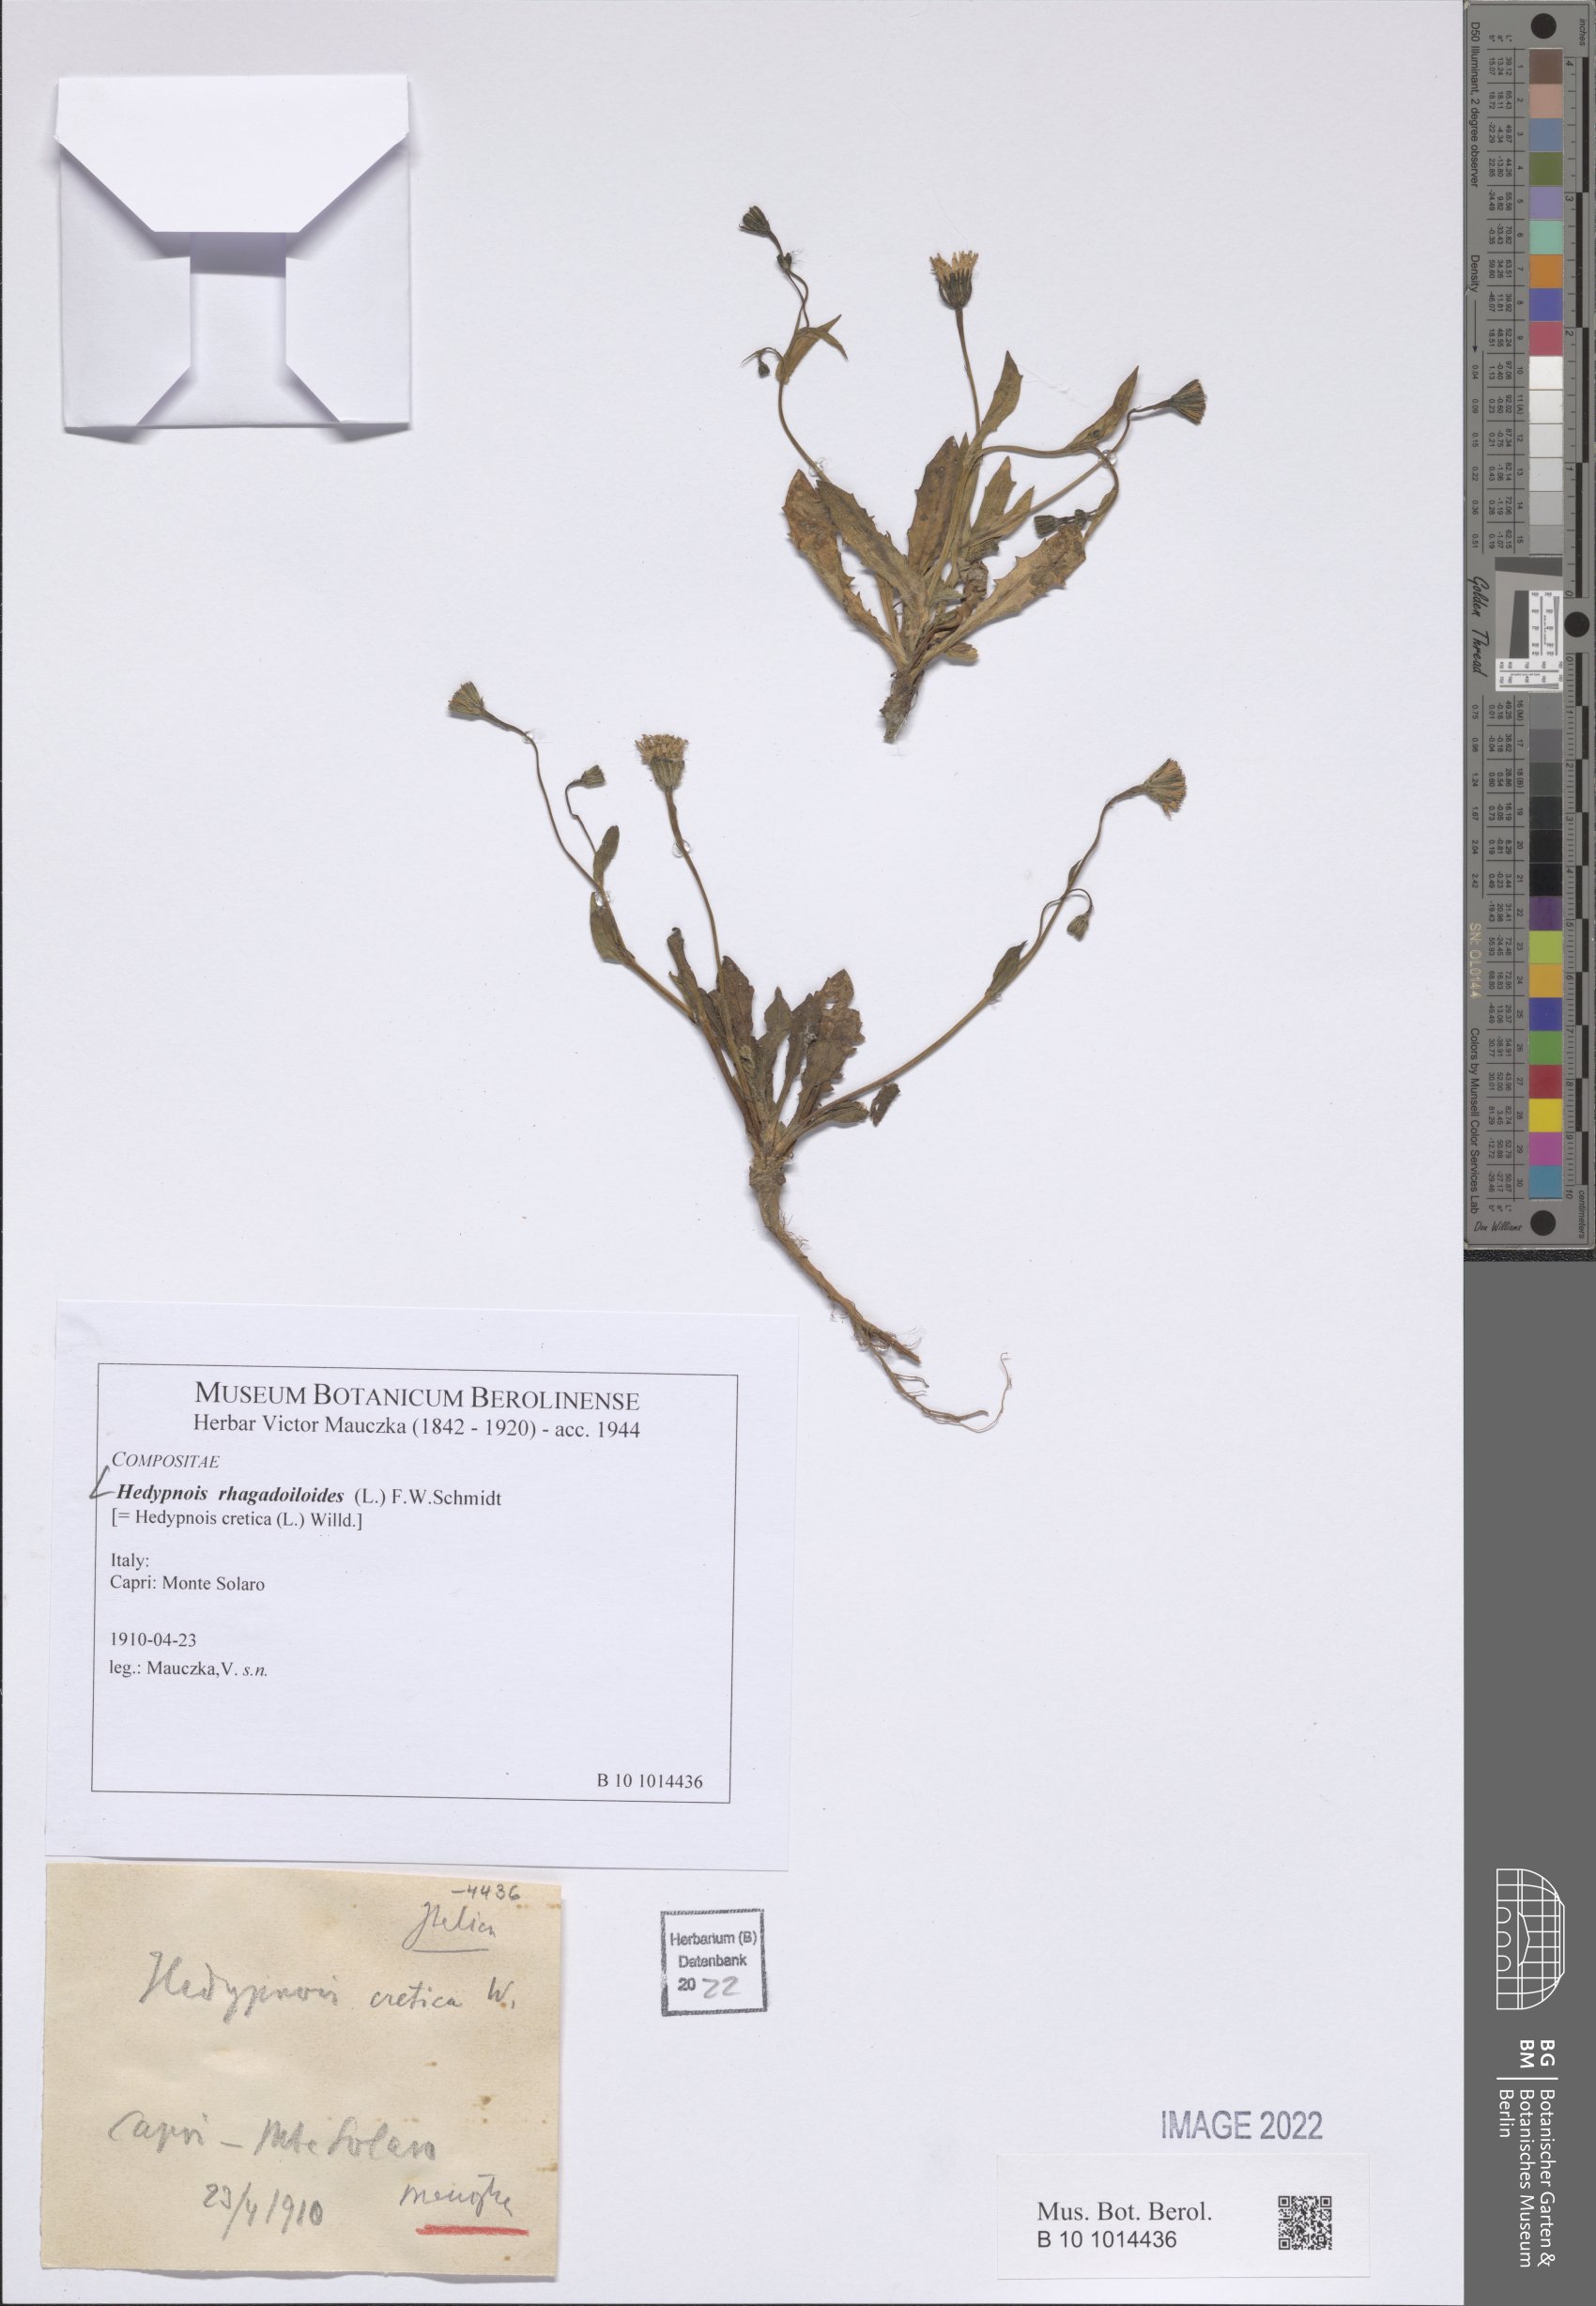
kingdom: Plantae
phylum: Tracheophyta
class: Magnoliopsida
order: Asterales
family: Asteraceae
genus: Hedypnois
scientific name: Hedypnois rhagadioloides
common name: Cretan weed
